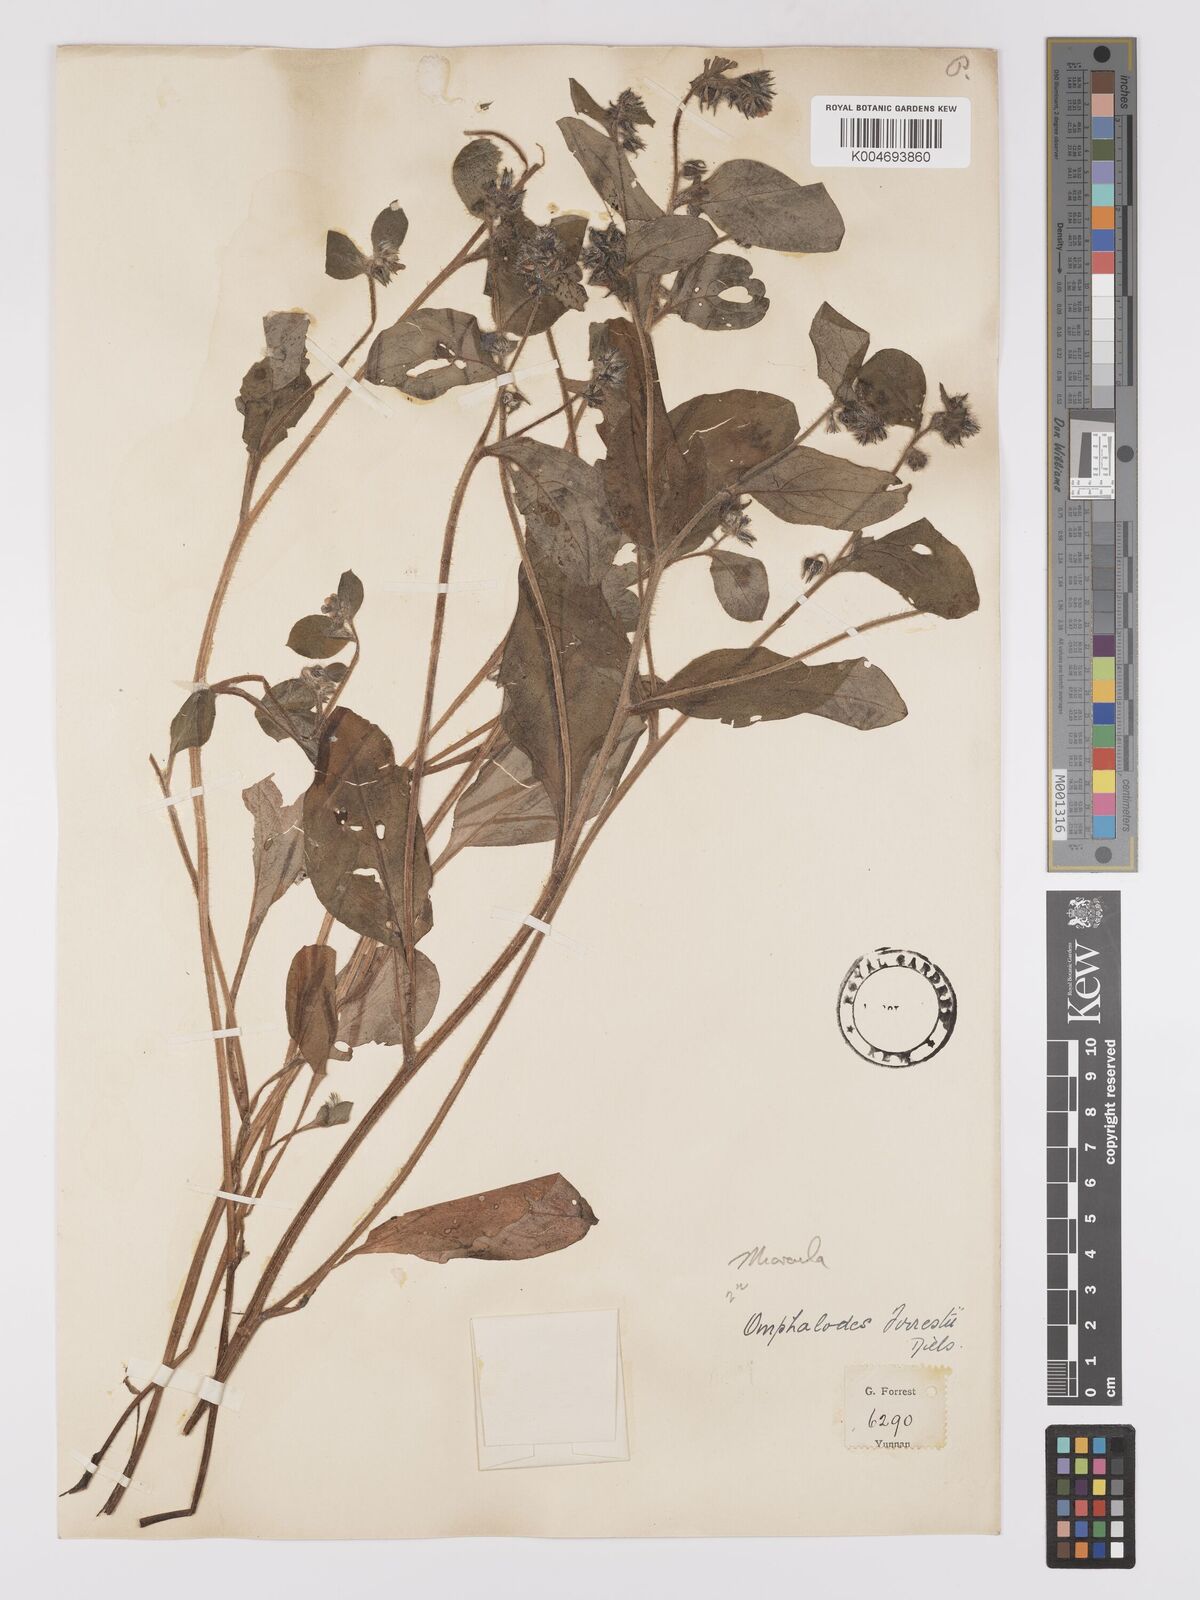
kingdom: Plantae
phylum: Tracheophyta
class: Magnoliopsida
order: Boraginales
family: Boraginaceae
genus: Microula
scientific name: Microula forrestii
